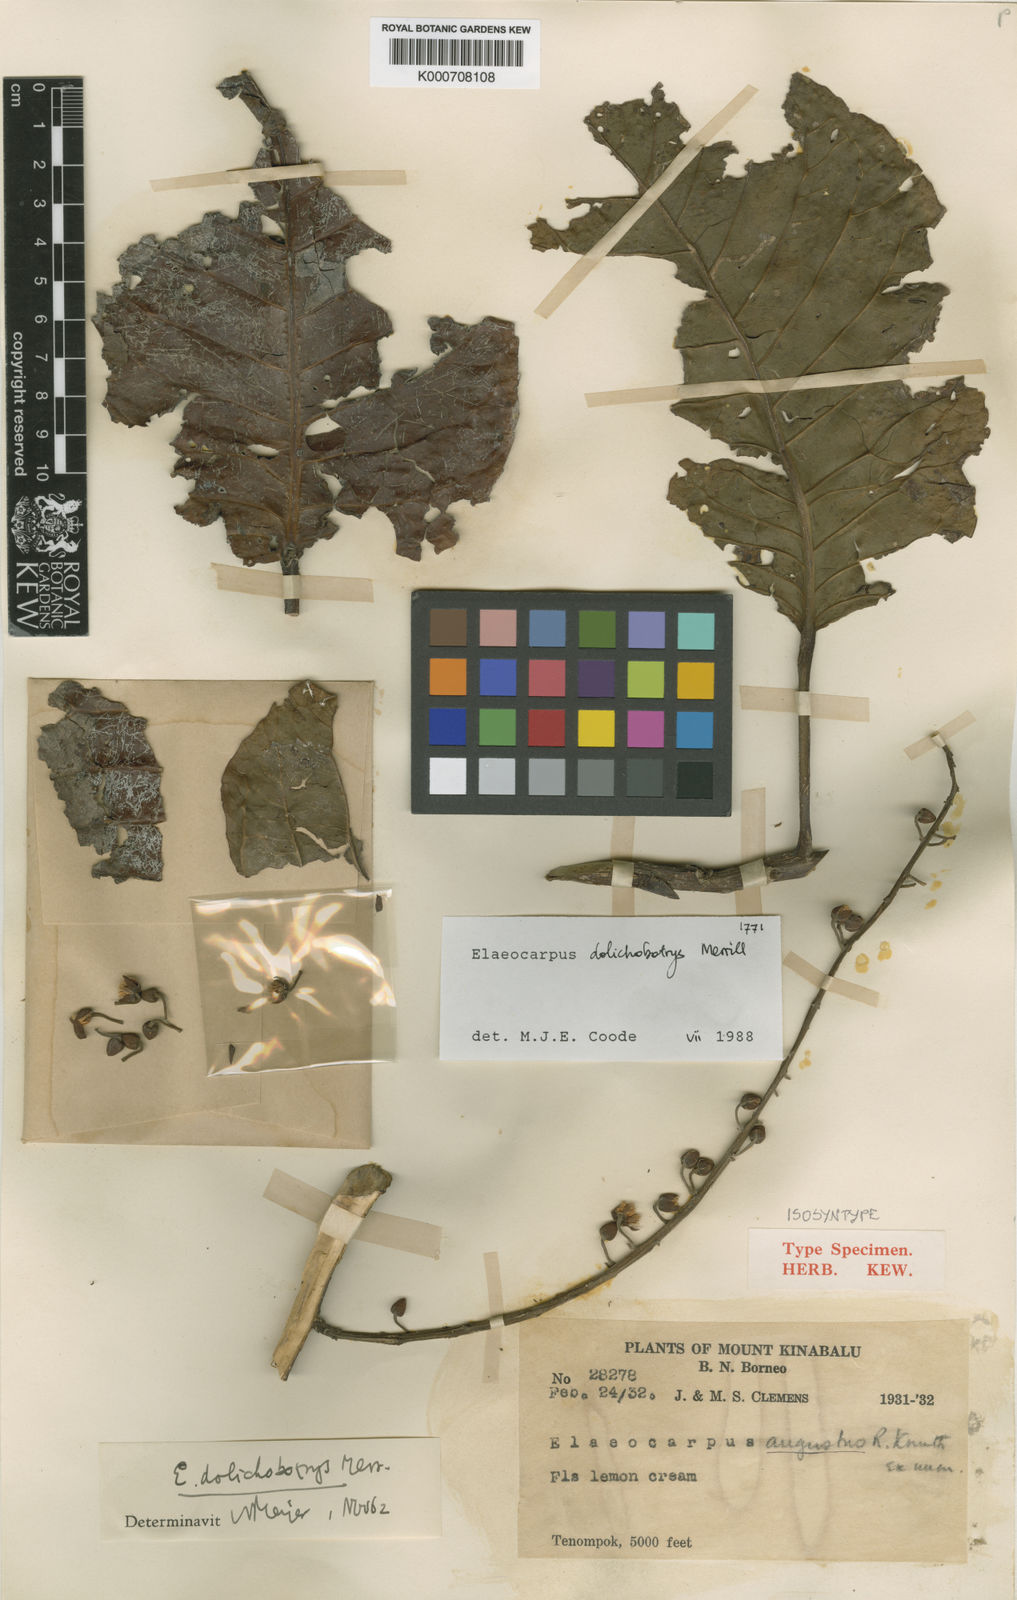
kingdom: Plantae
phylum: Tracheophyta
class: Magnoliopsida
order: Oxalidales
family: Elaeocarpaceae
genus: Elaeocarpus
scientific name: Elaeocarpus dolichobotrys
